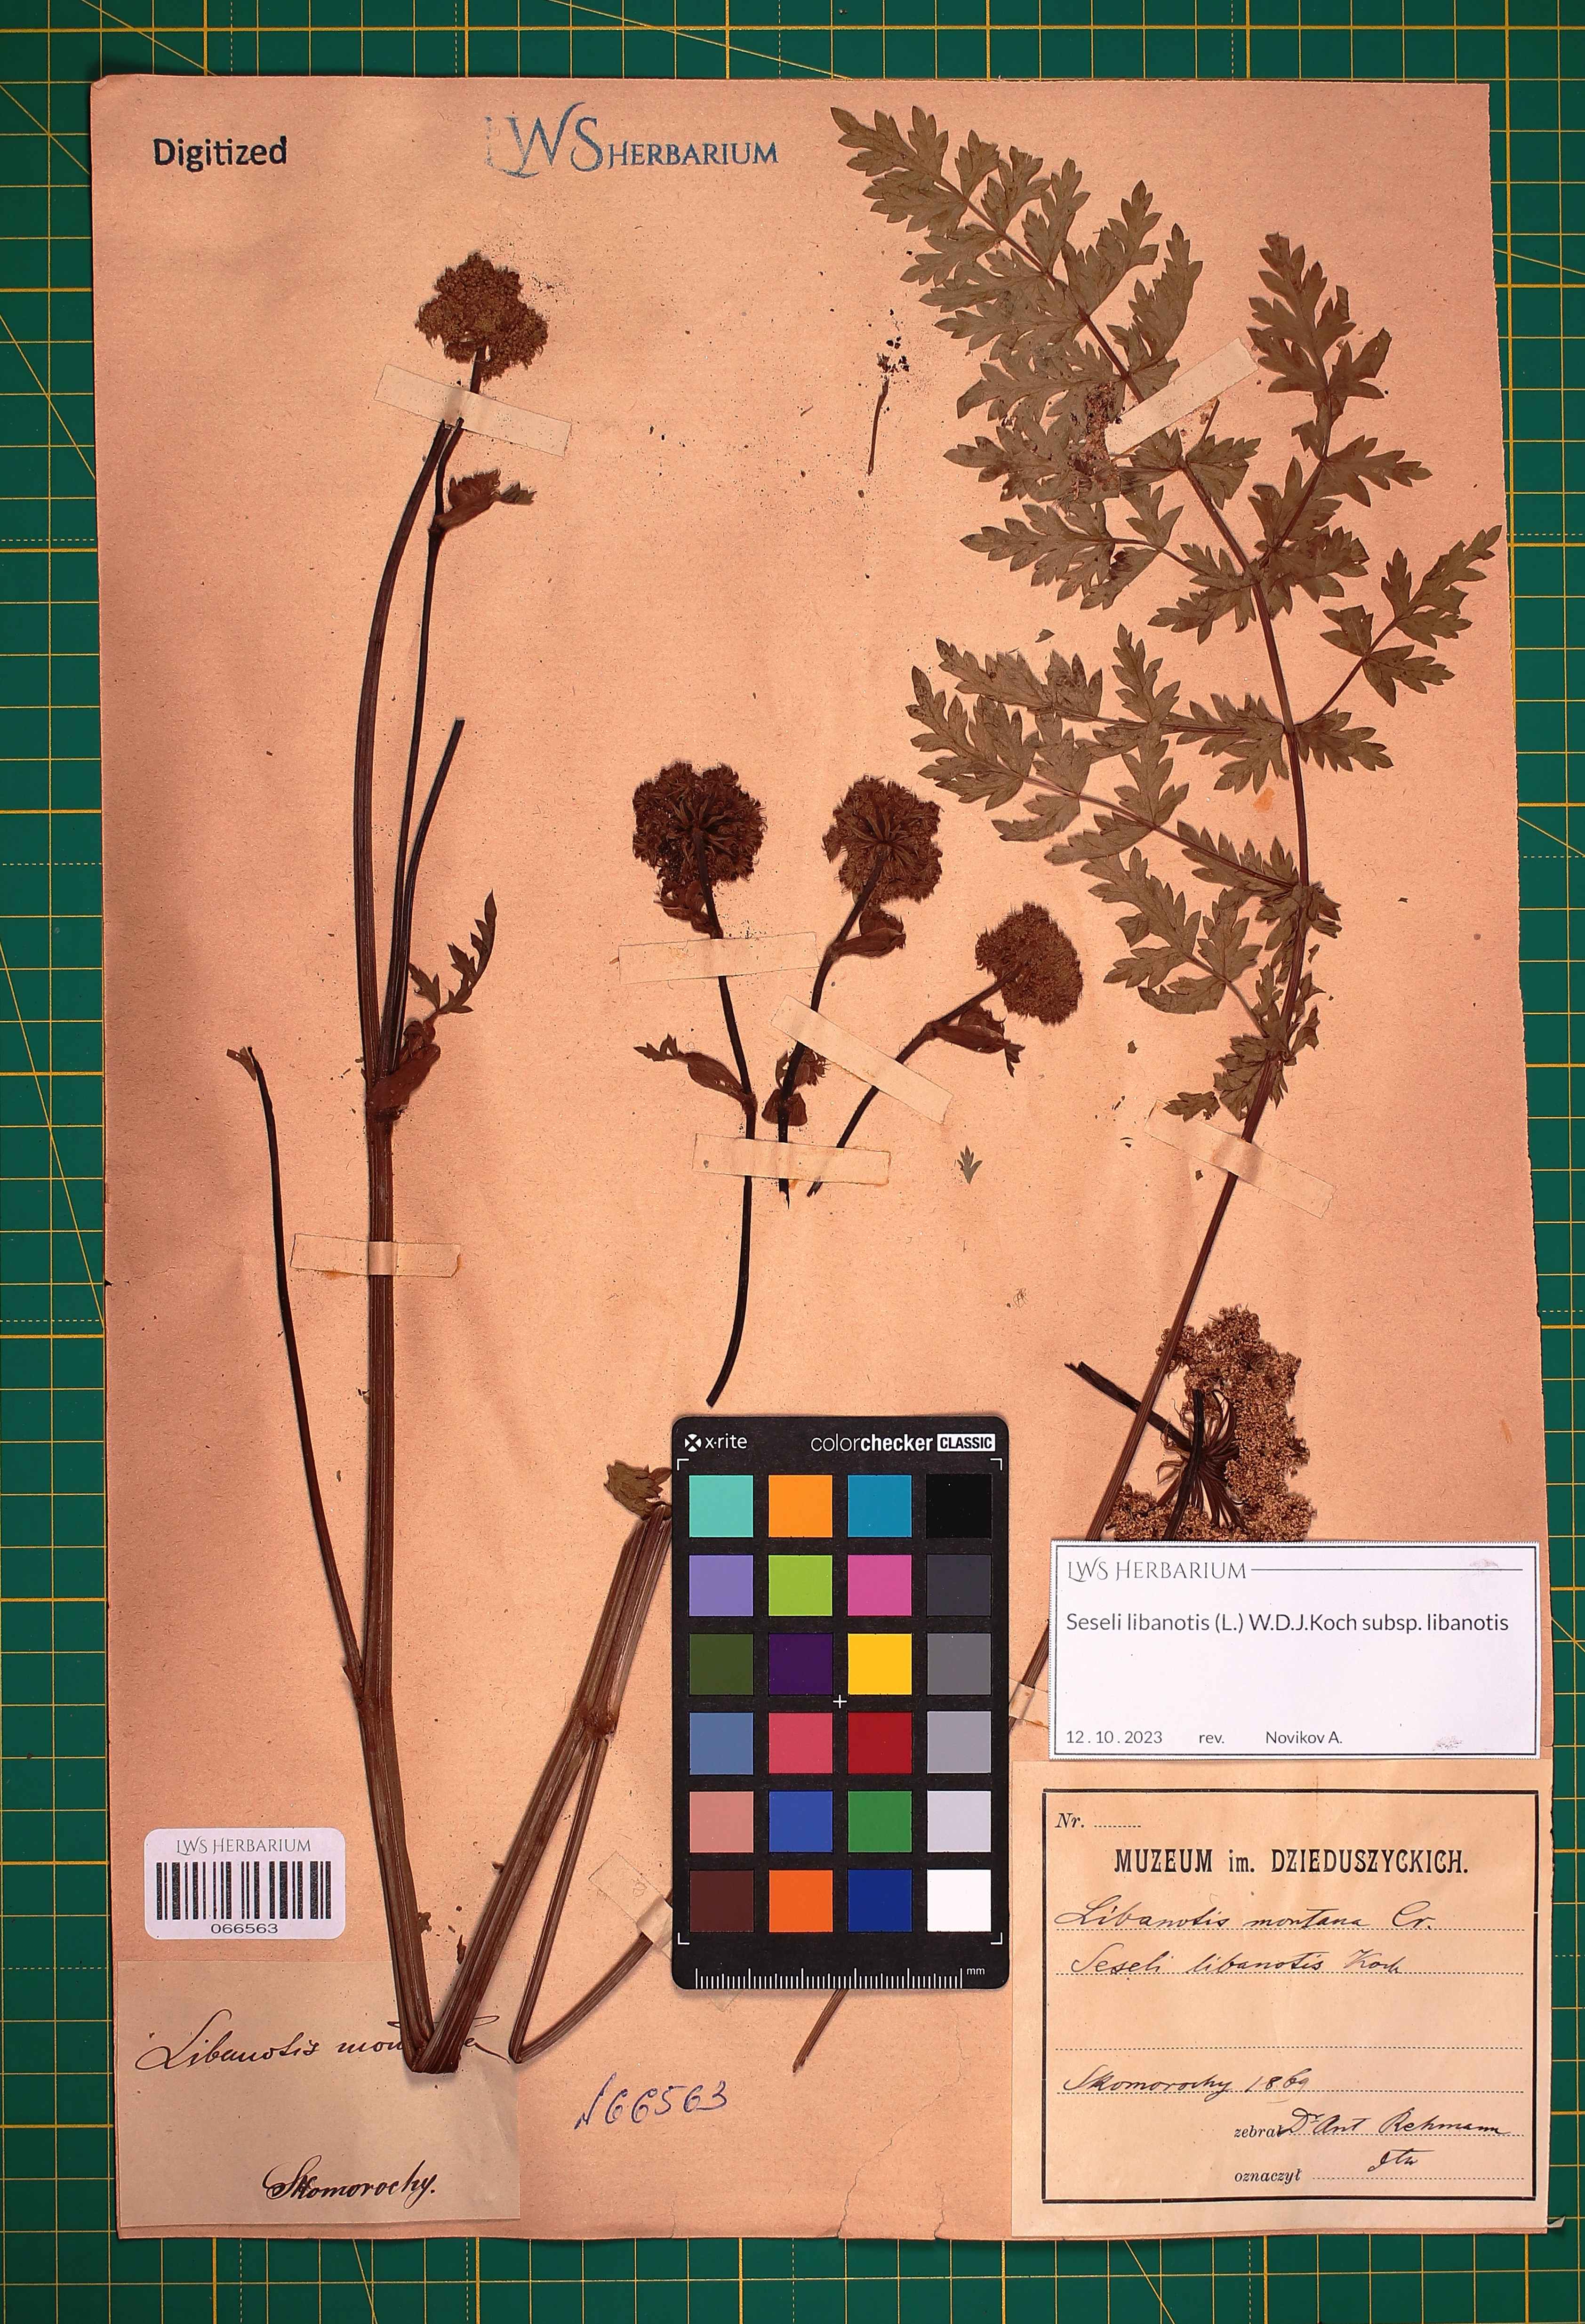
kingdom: Plantae
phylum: Tracheophyta
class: Magnoliopsida
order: Apiales
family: Apiaceae
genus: Seseli
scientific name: Seseli libanotis
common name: Mooncarrot
